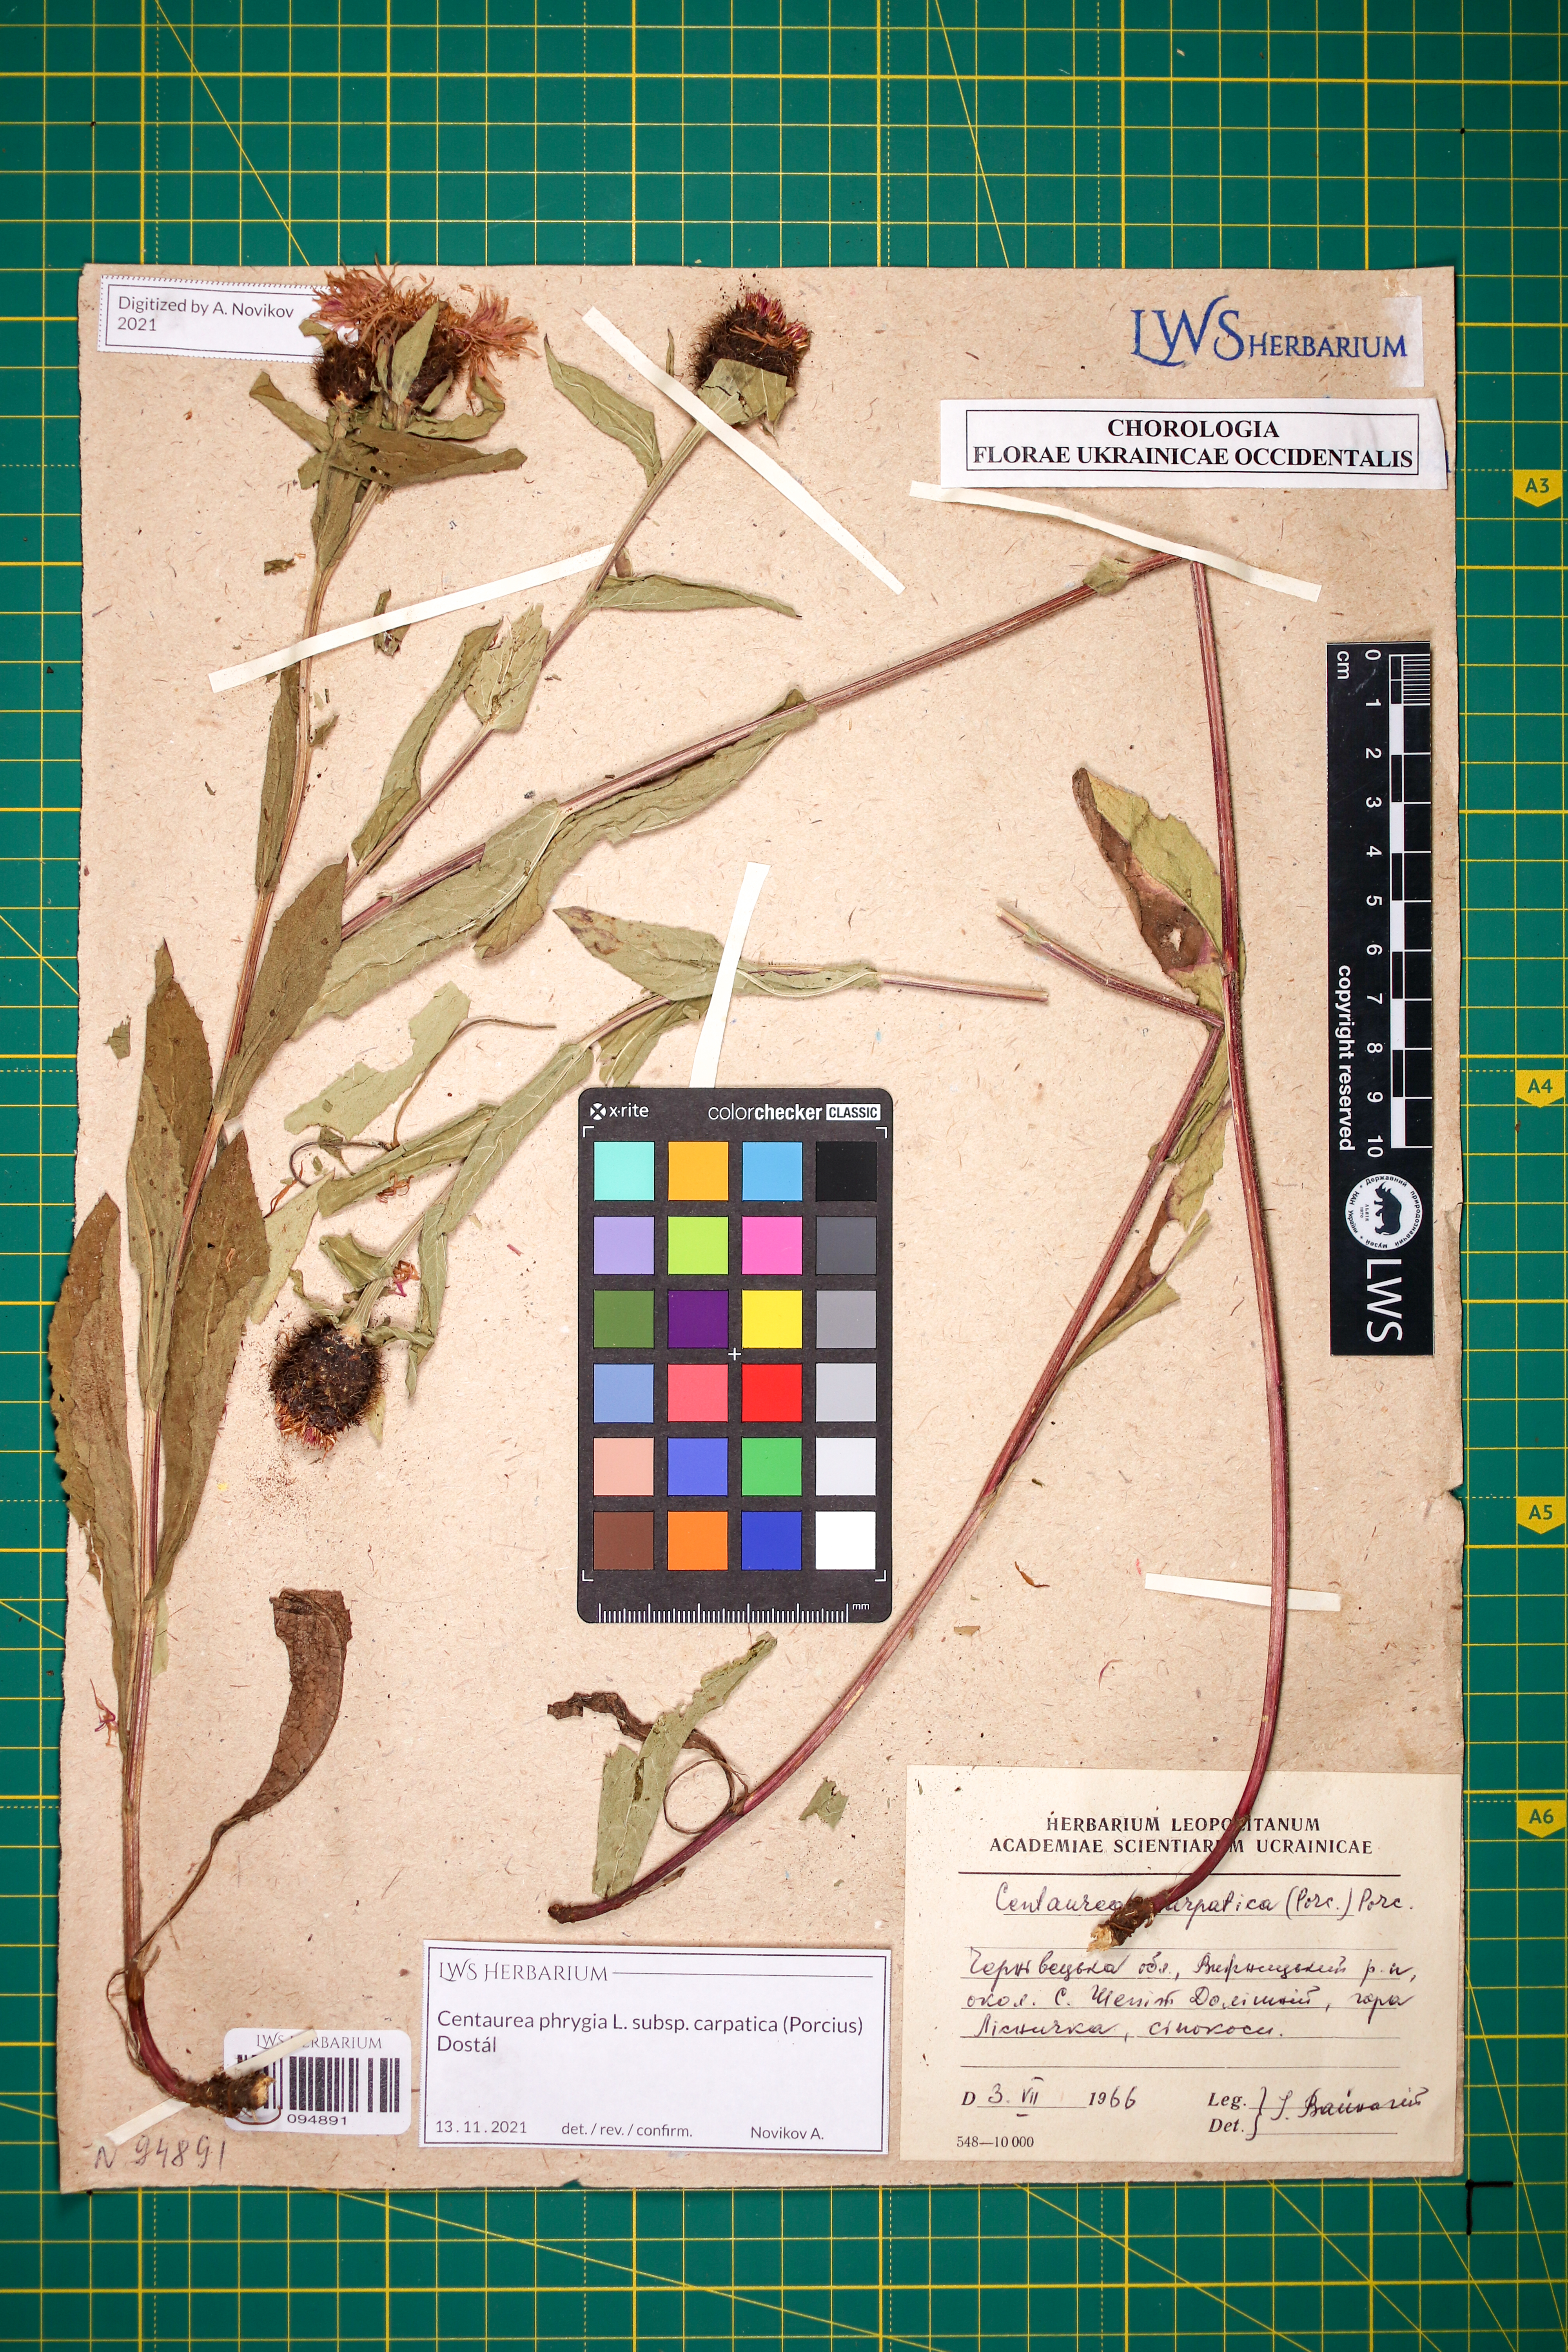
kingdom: Plantae
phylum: Tracheophyta
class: Magnoliopsida
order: Asterales
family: Asteraceae
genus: Centaurea
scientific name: Centaurea phrygia
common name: Wig knapweed
